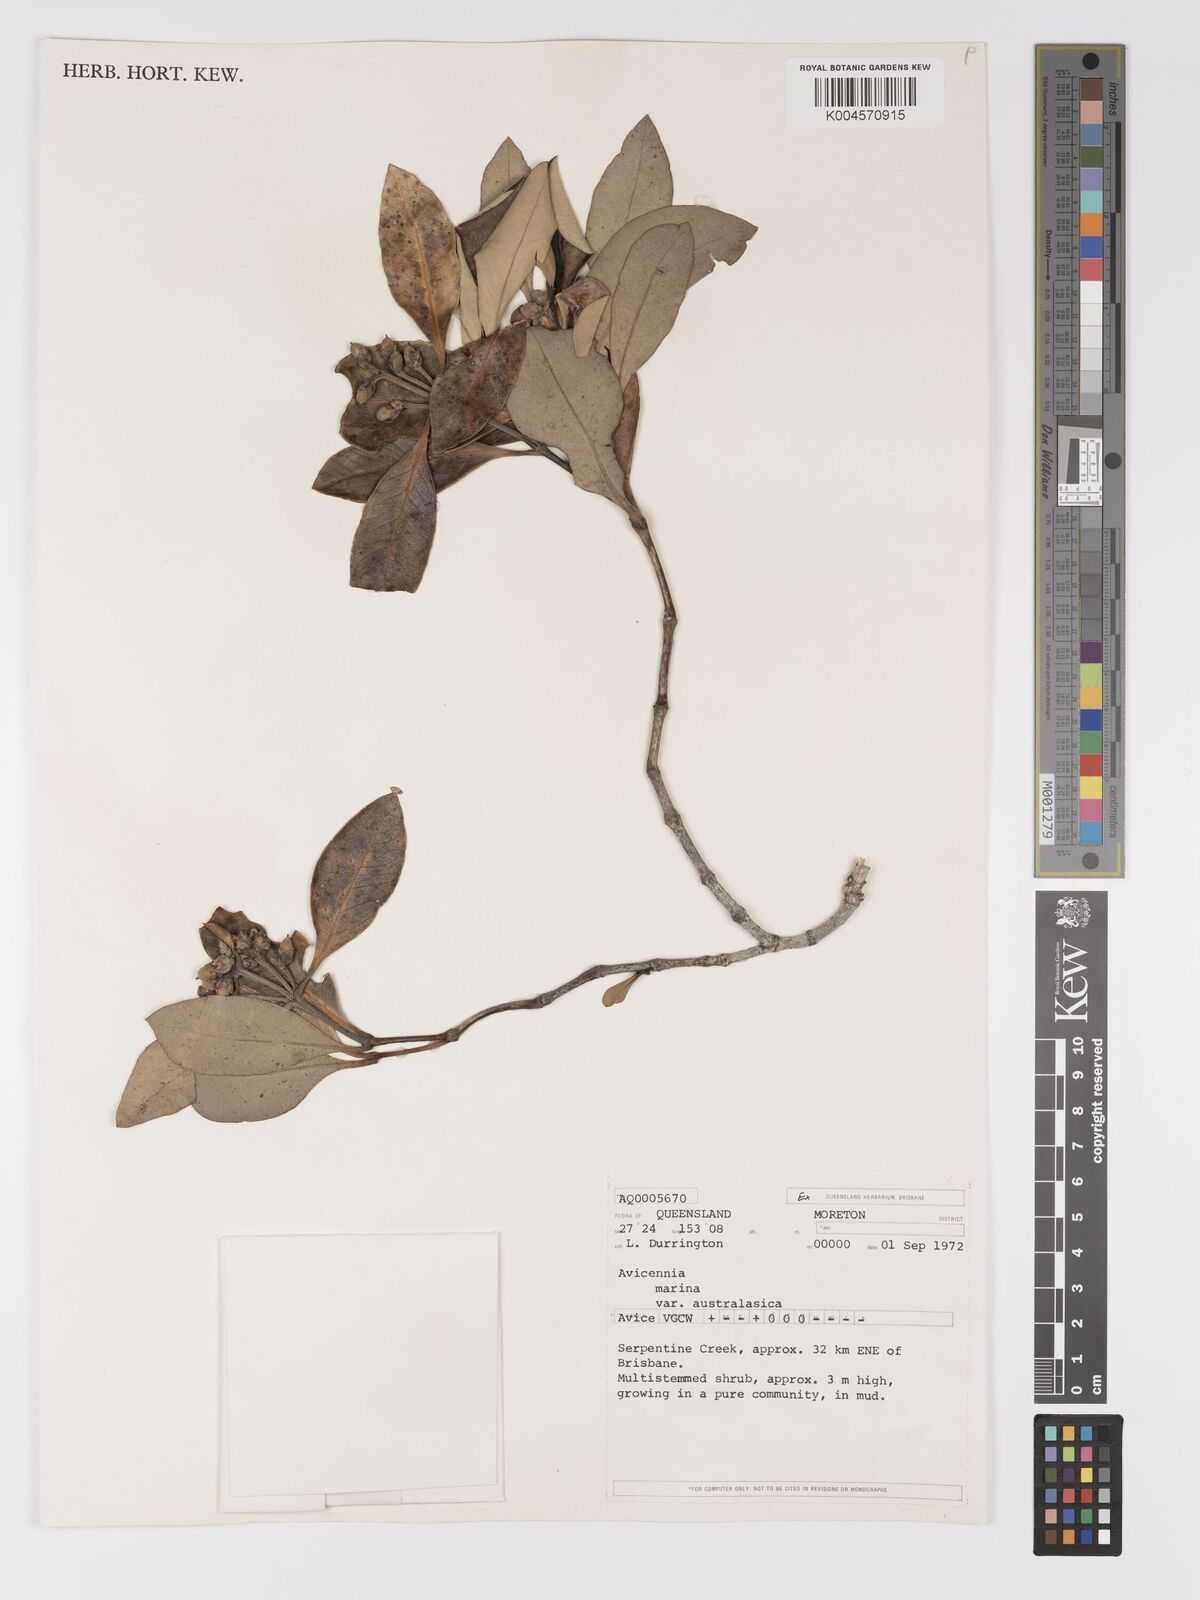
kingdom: Plantae
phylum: Tracheophyta
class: Magnoliopsida
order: Lamiales
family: Acanthaceae
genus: Avicennia
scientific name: Avicennia marina
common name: Gray mangrove
